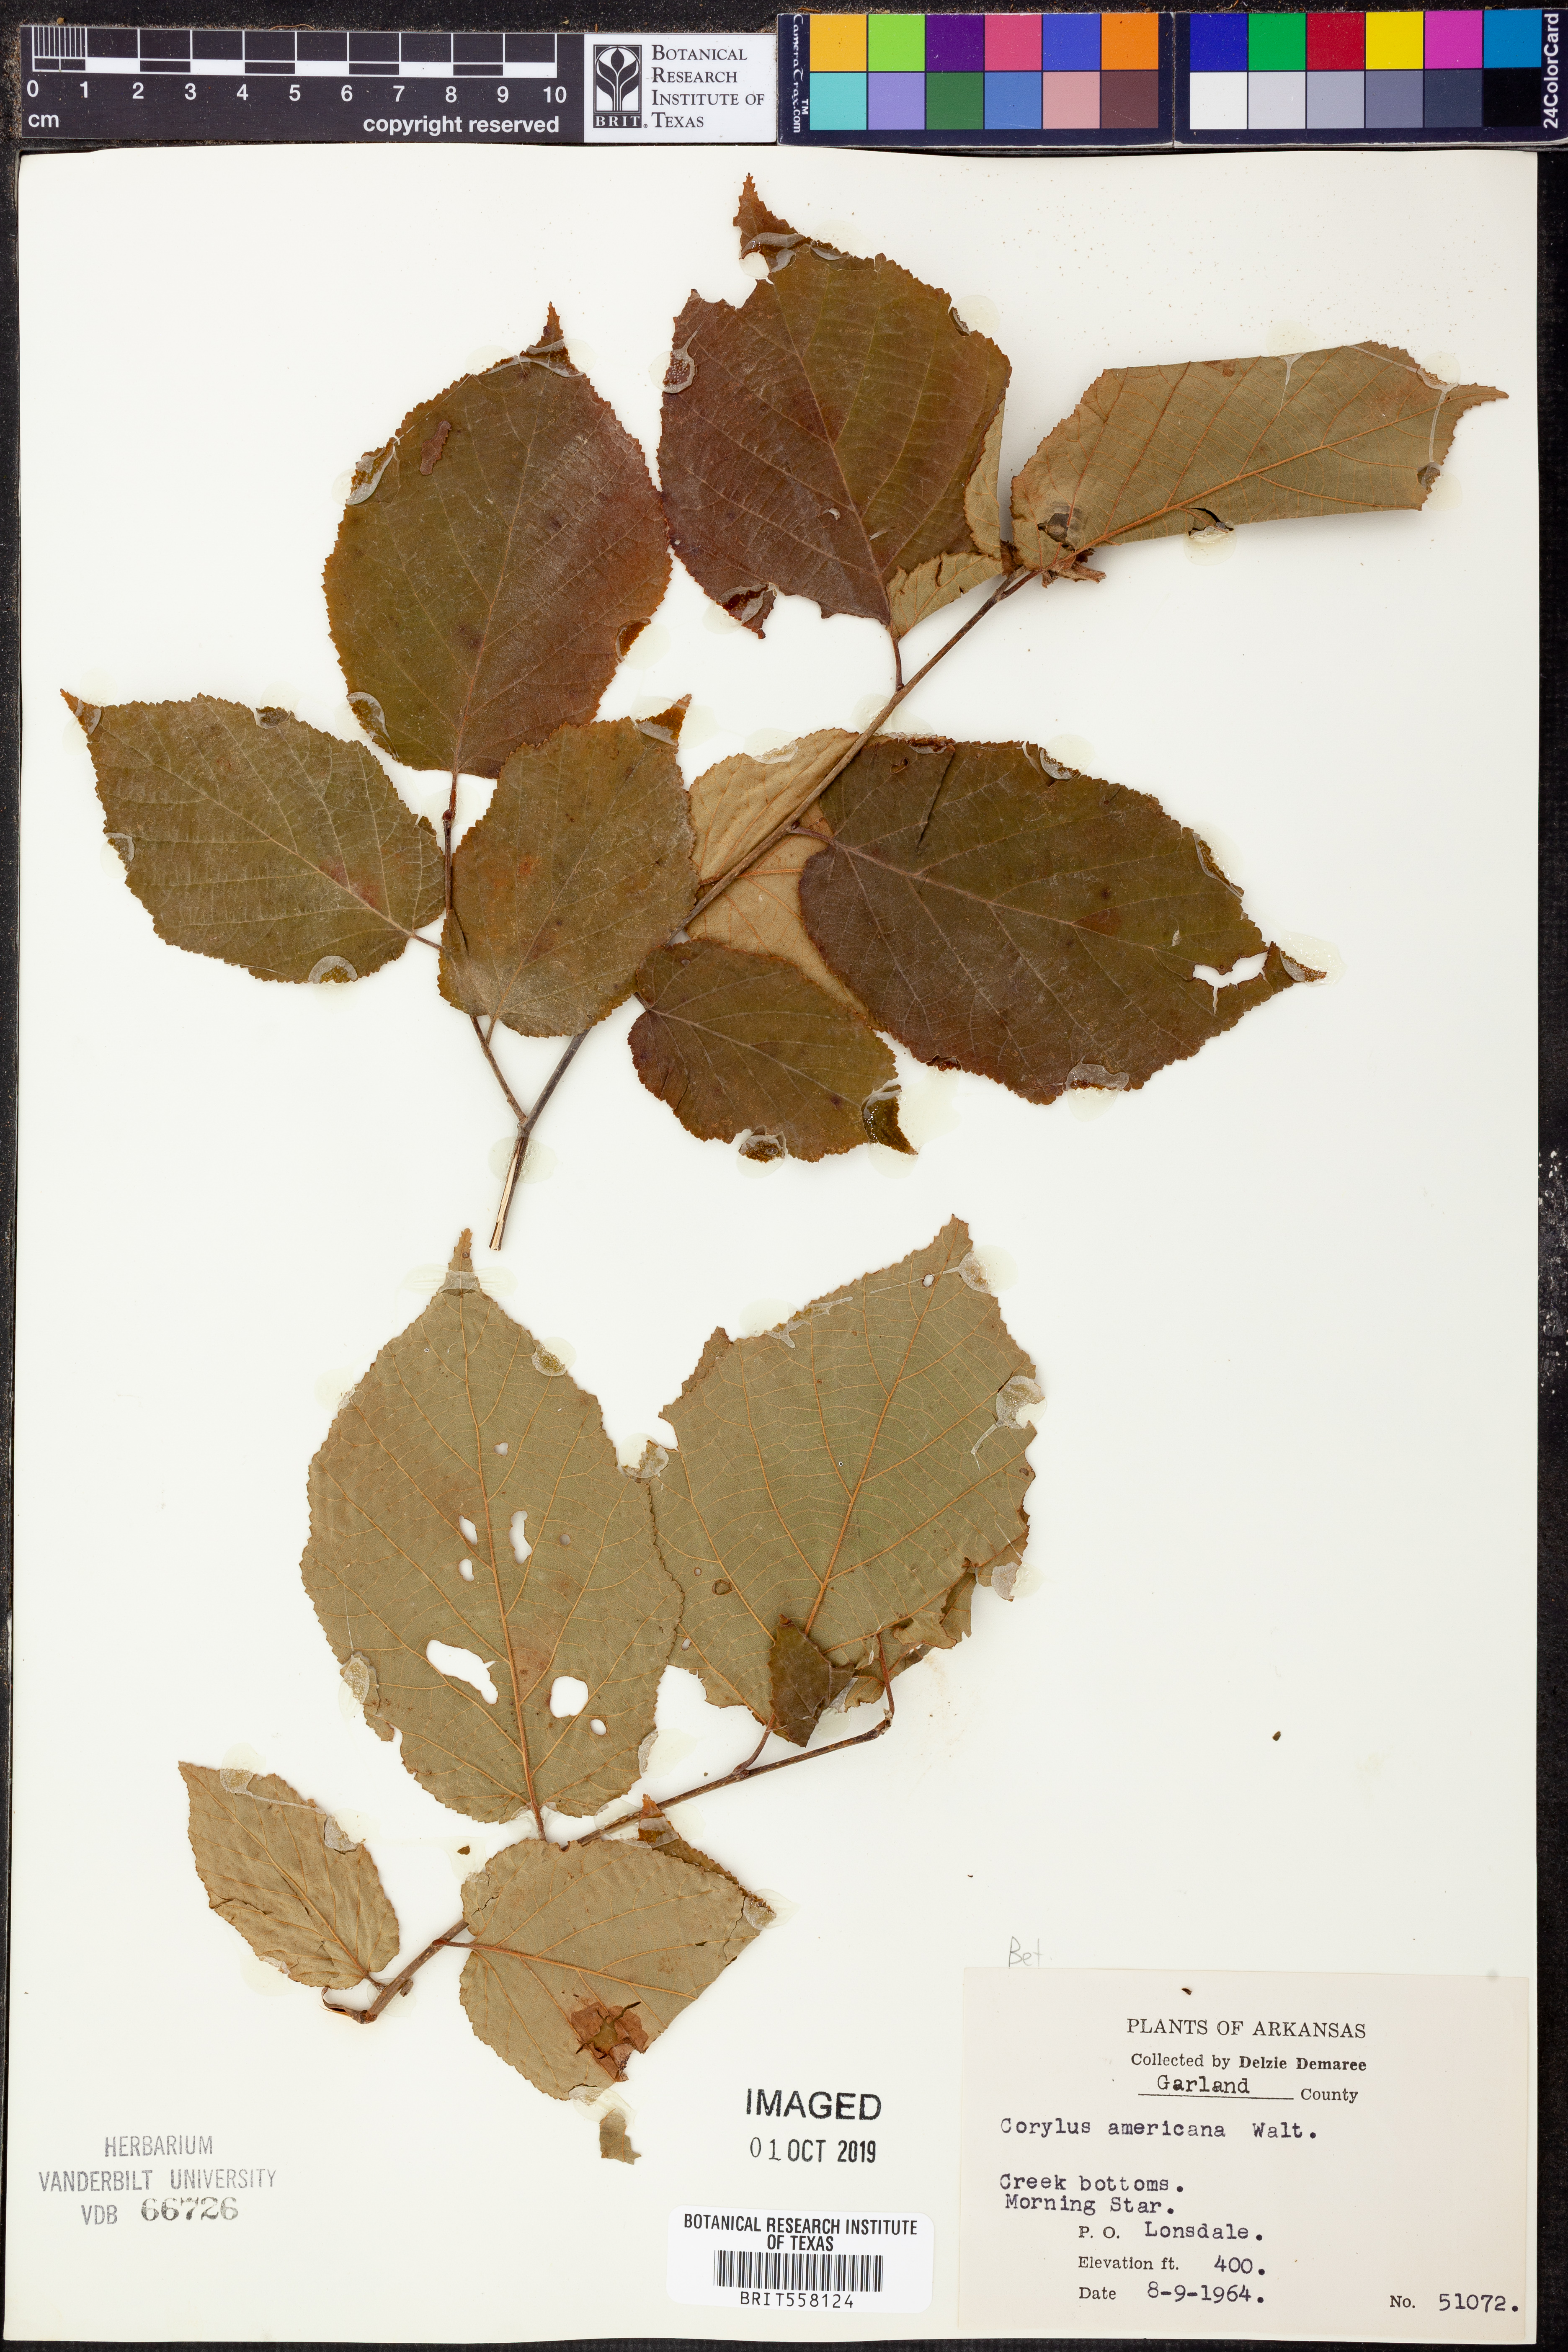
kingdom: Plantae
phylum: Tracheophyta
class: Magnoliopsida
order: Fagales
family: Betulaceae
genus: Corylus
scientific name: Corylus americana
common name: American hazel
